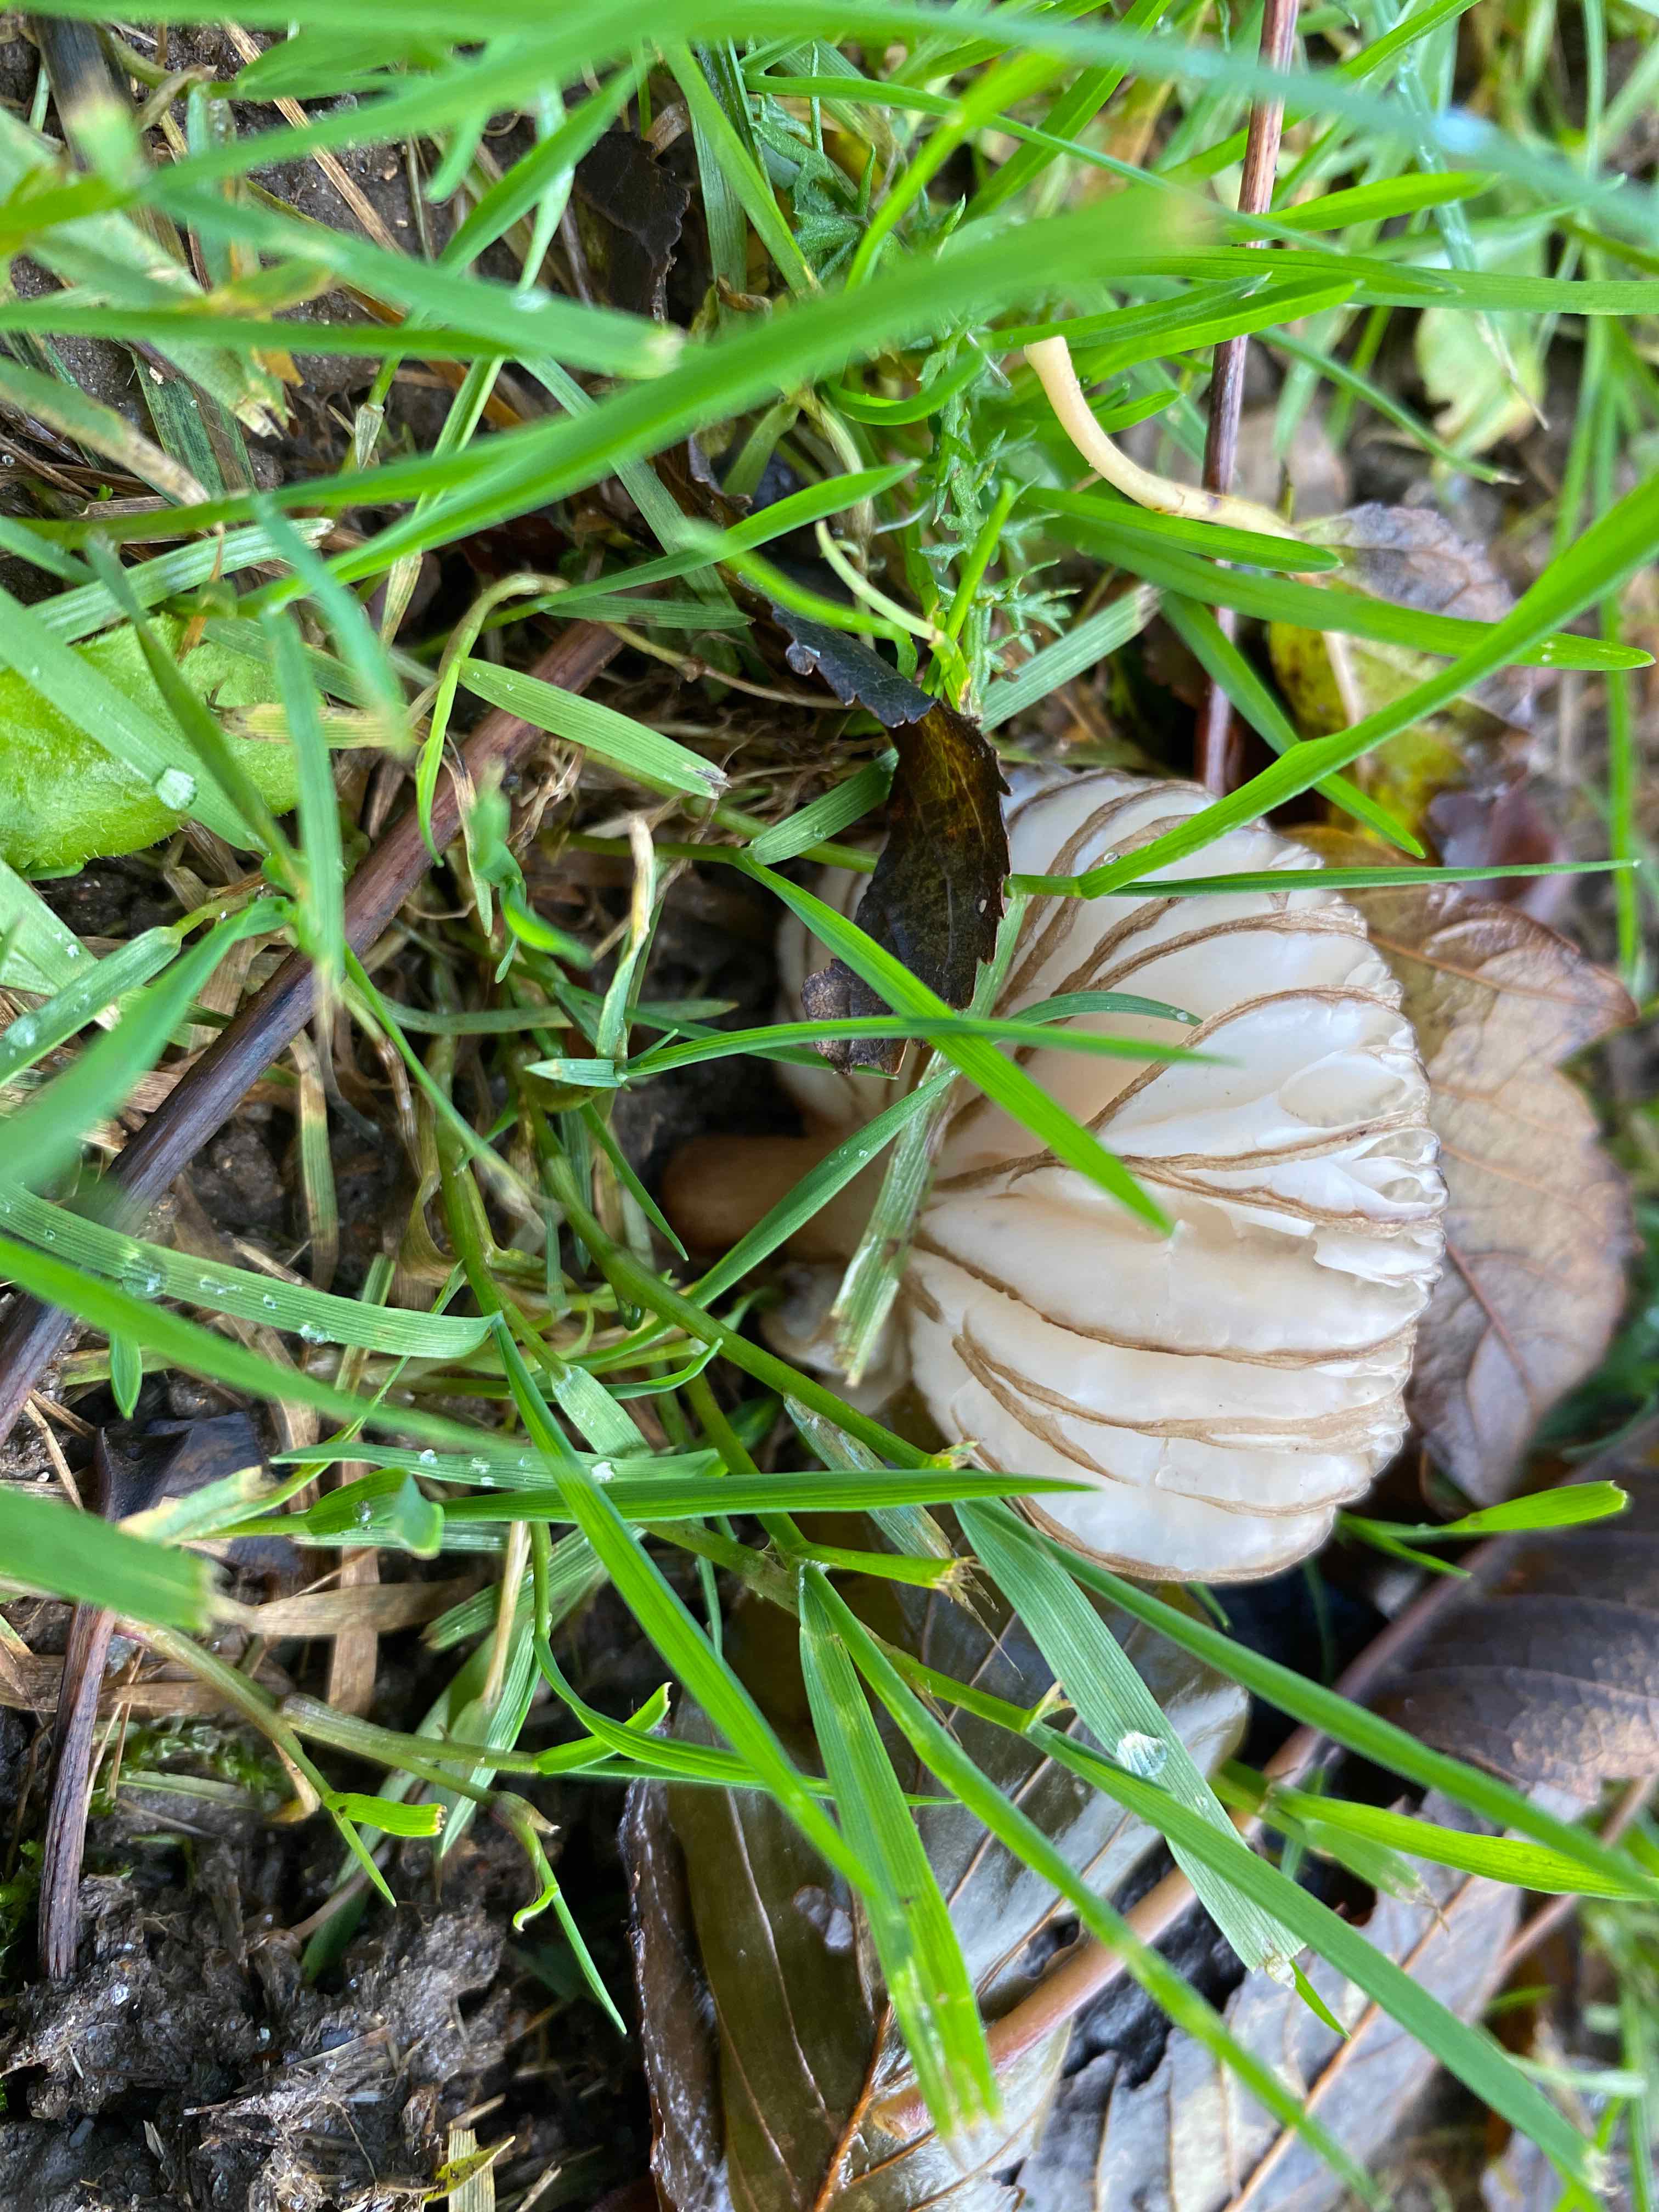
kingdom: Fungi
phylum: Basidiomycota
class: Agaricomycetes
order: Agaricales
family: Physalacriaceae
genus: Hymenopellis
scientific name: Hymenopellis radicata
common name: almindelig pælerodshat
